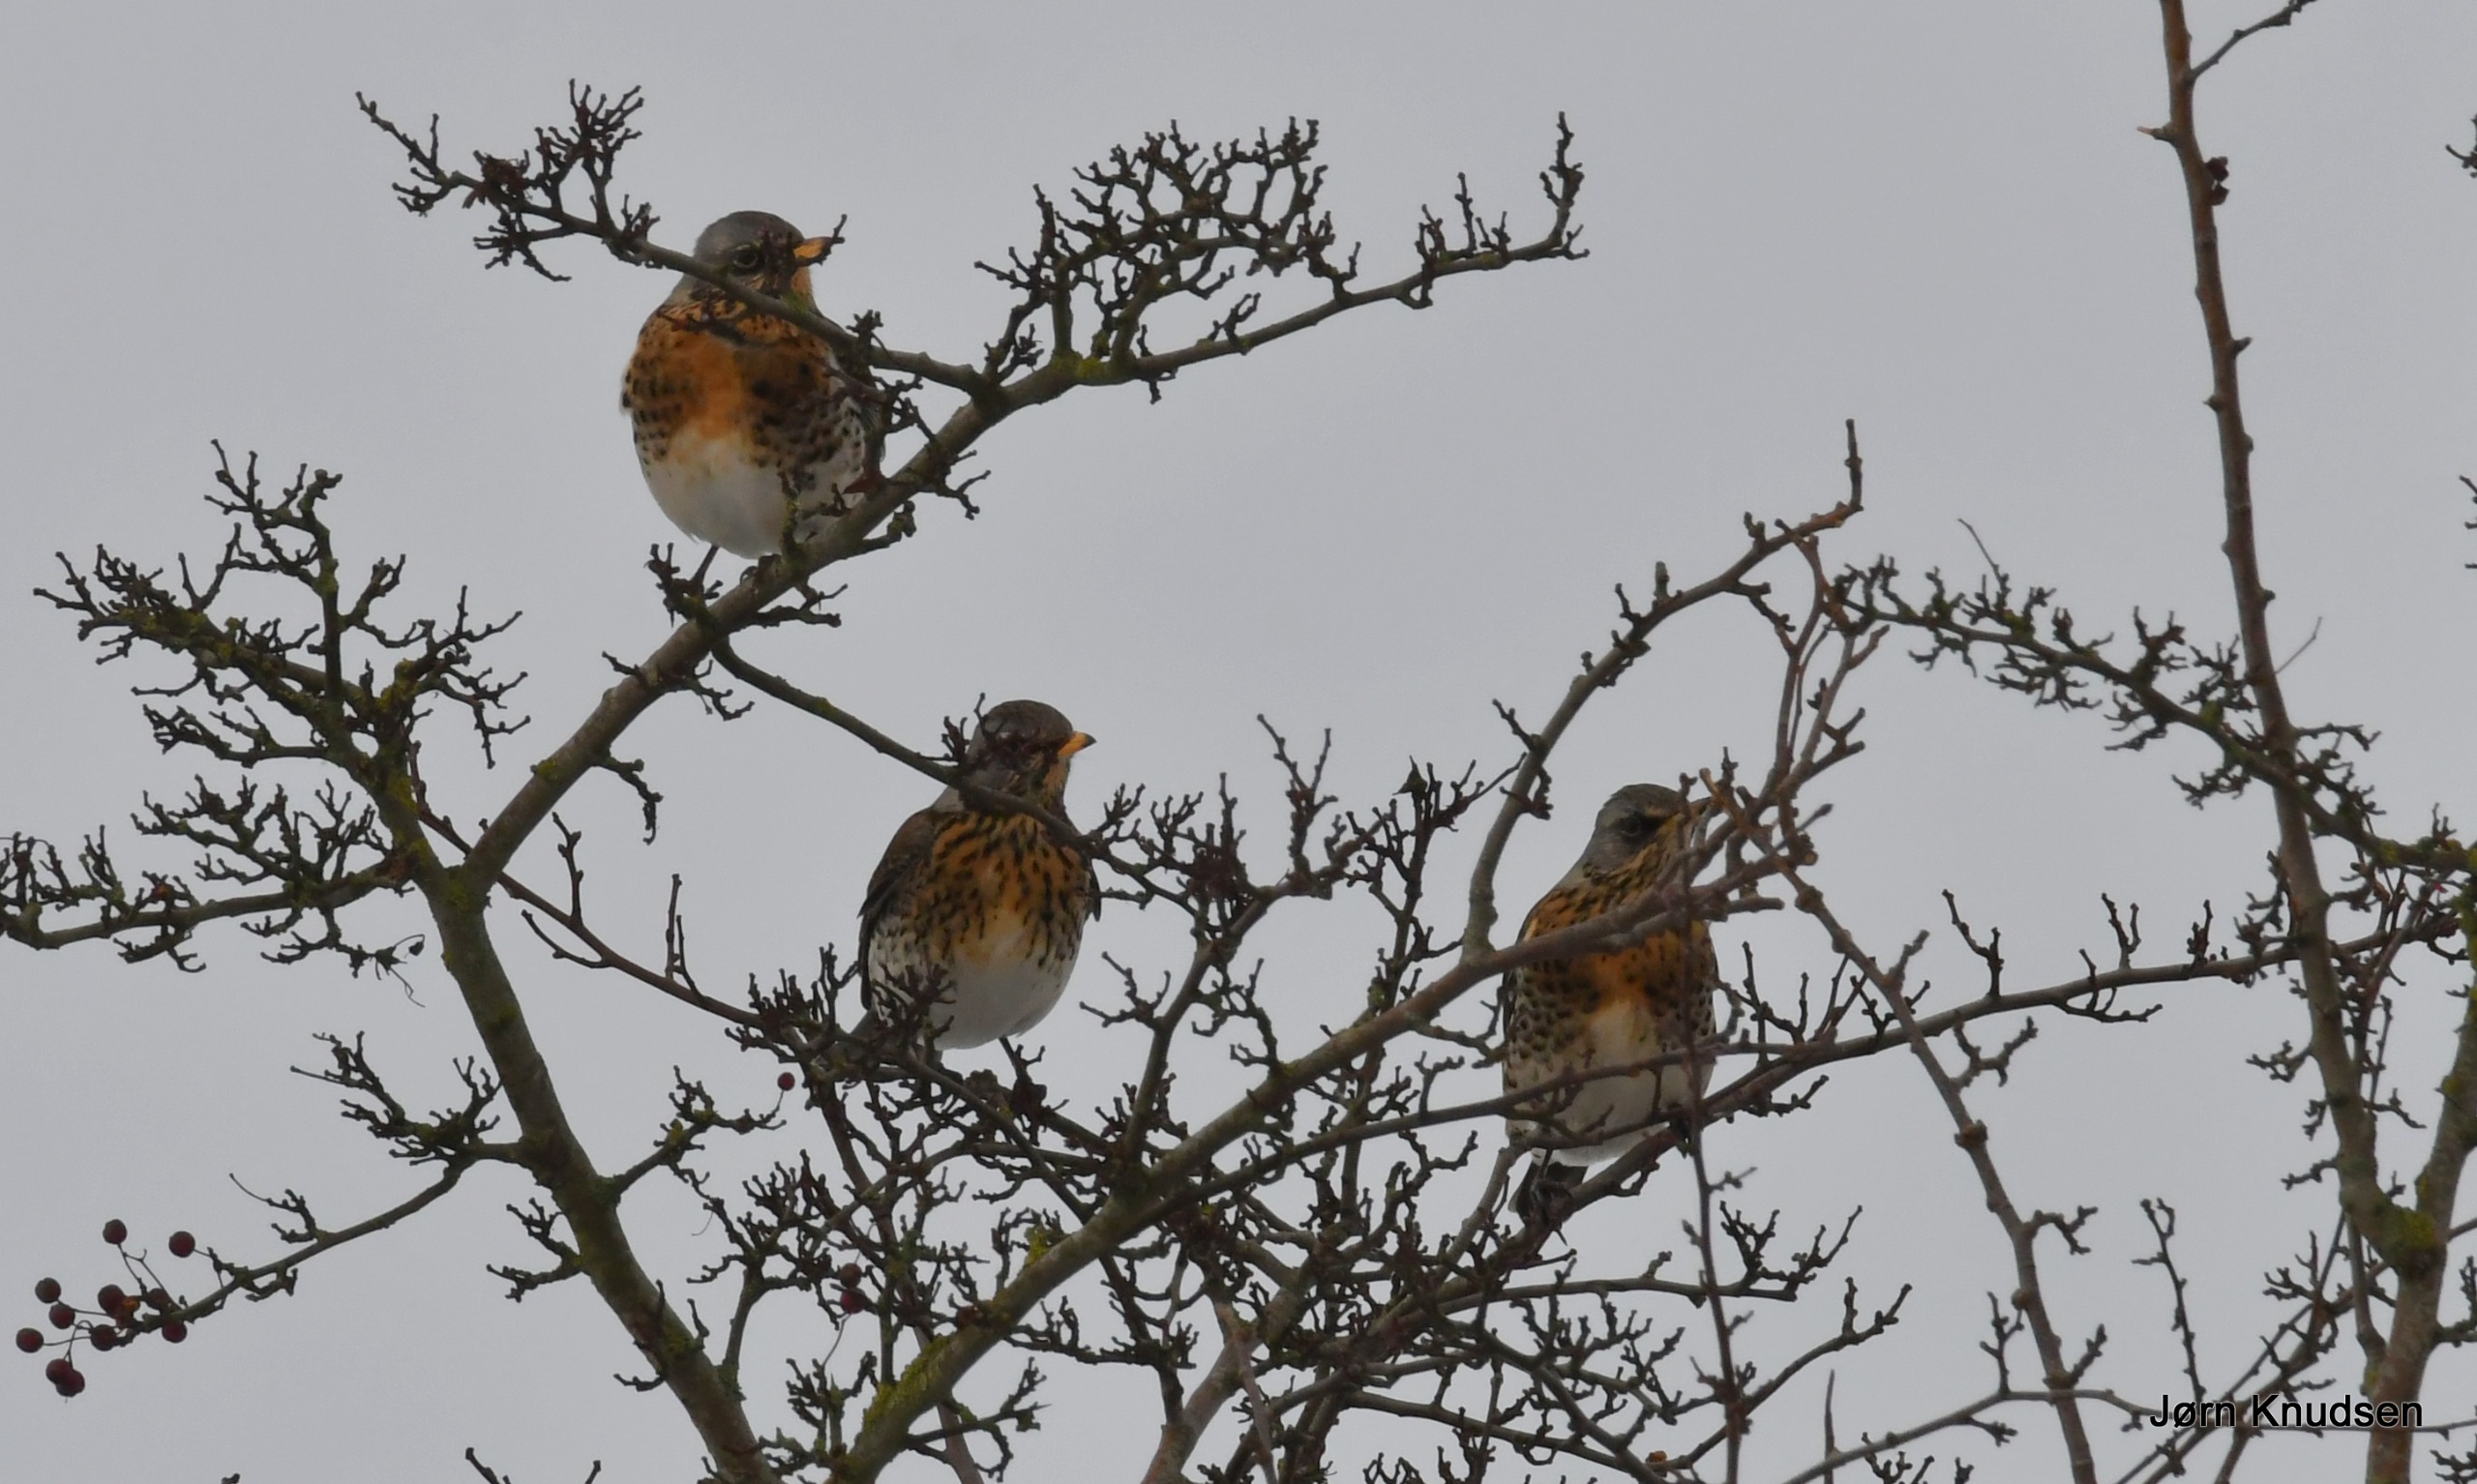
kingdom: Animalia
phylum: Chordata
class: Aves
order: Passeriformes
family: Turdidae
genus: Turdus
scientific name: Turdus pilaris
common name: Sjagger
